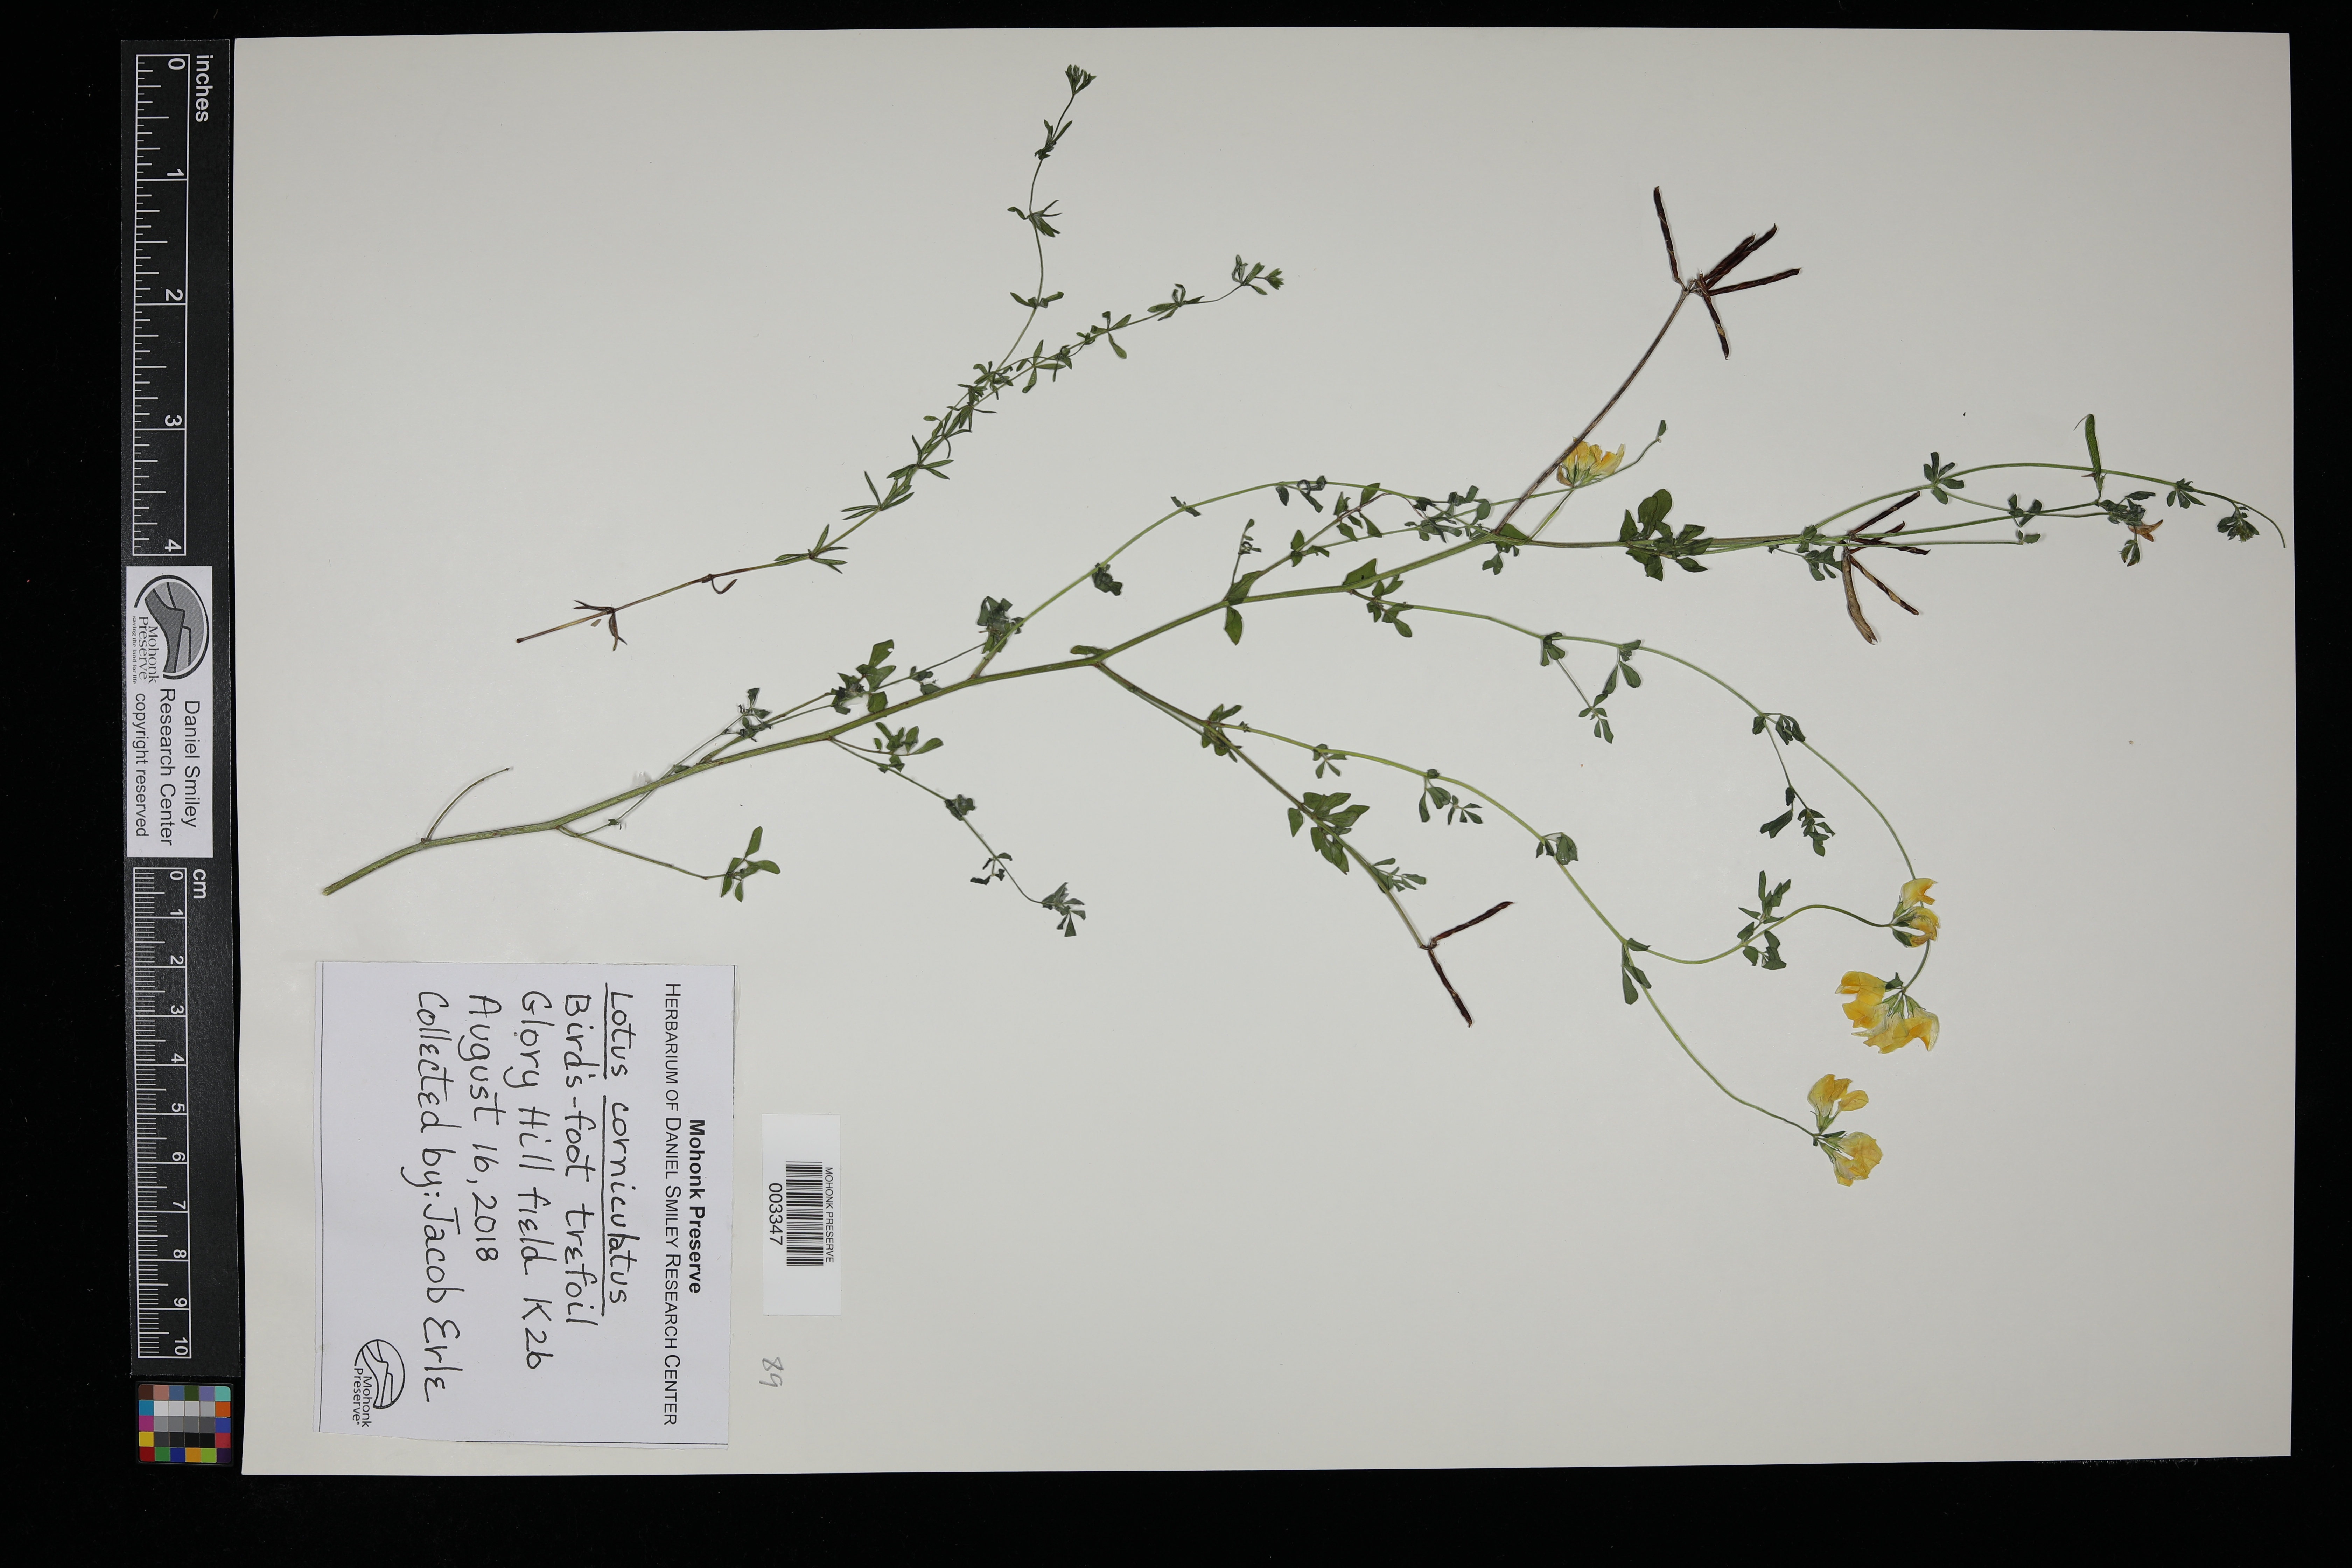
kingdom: Plantae
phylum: Tracheophyta
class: Magnoliopsida
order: Fabales
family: Fabaceae
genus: Lotus
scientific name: Lotus corniculatus
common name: Common bird's-foot-trefoil
